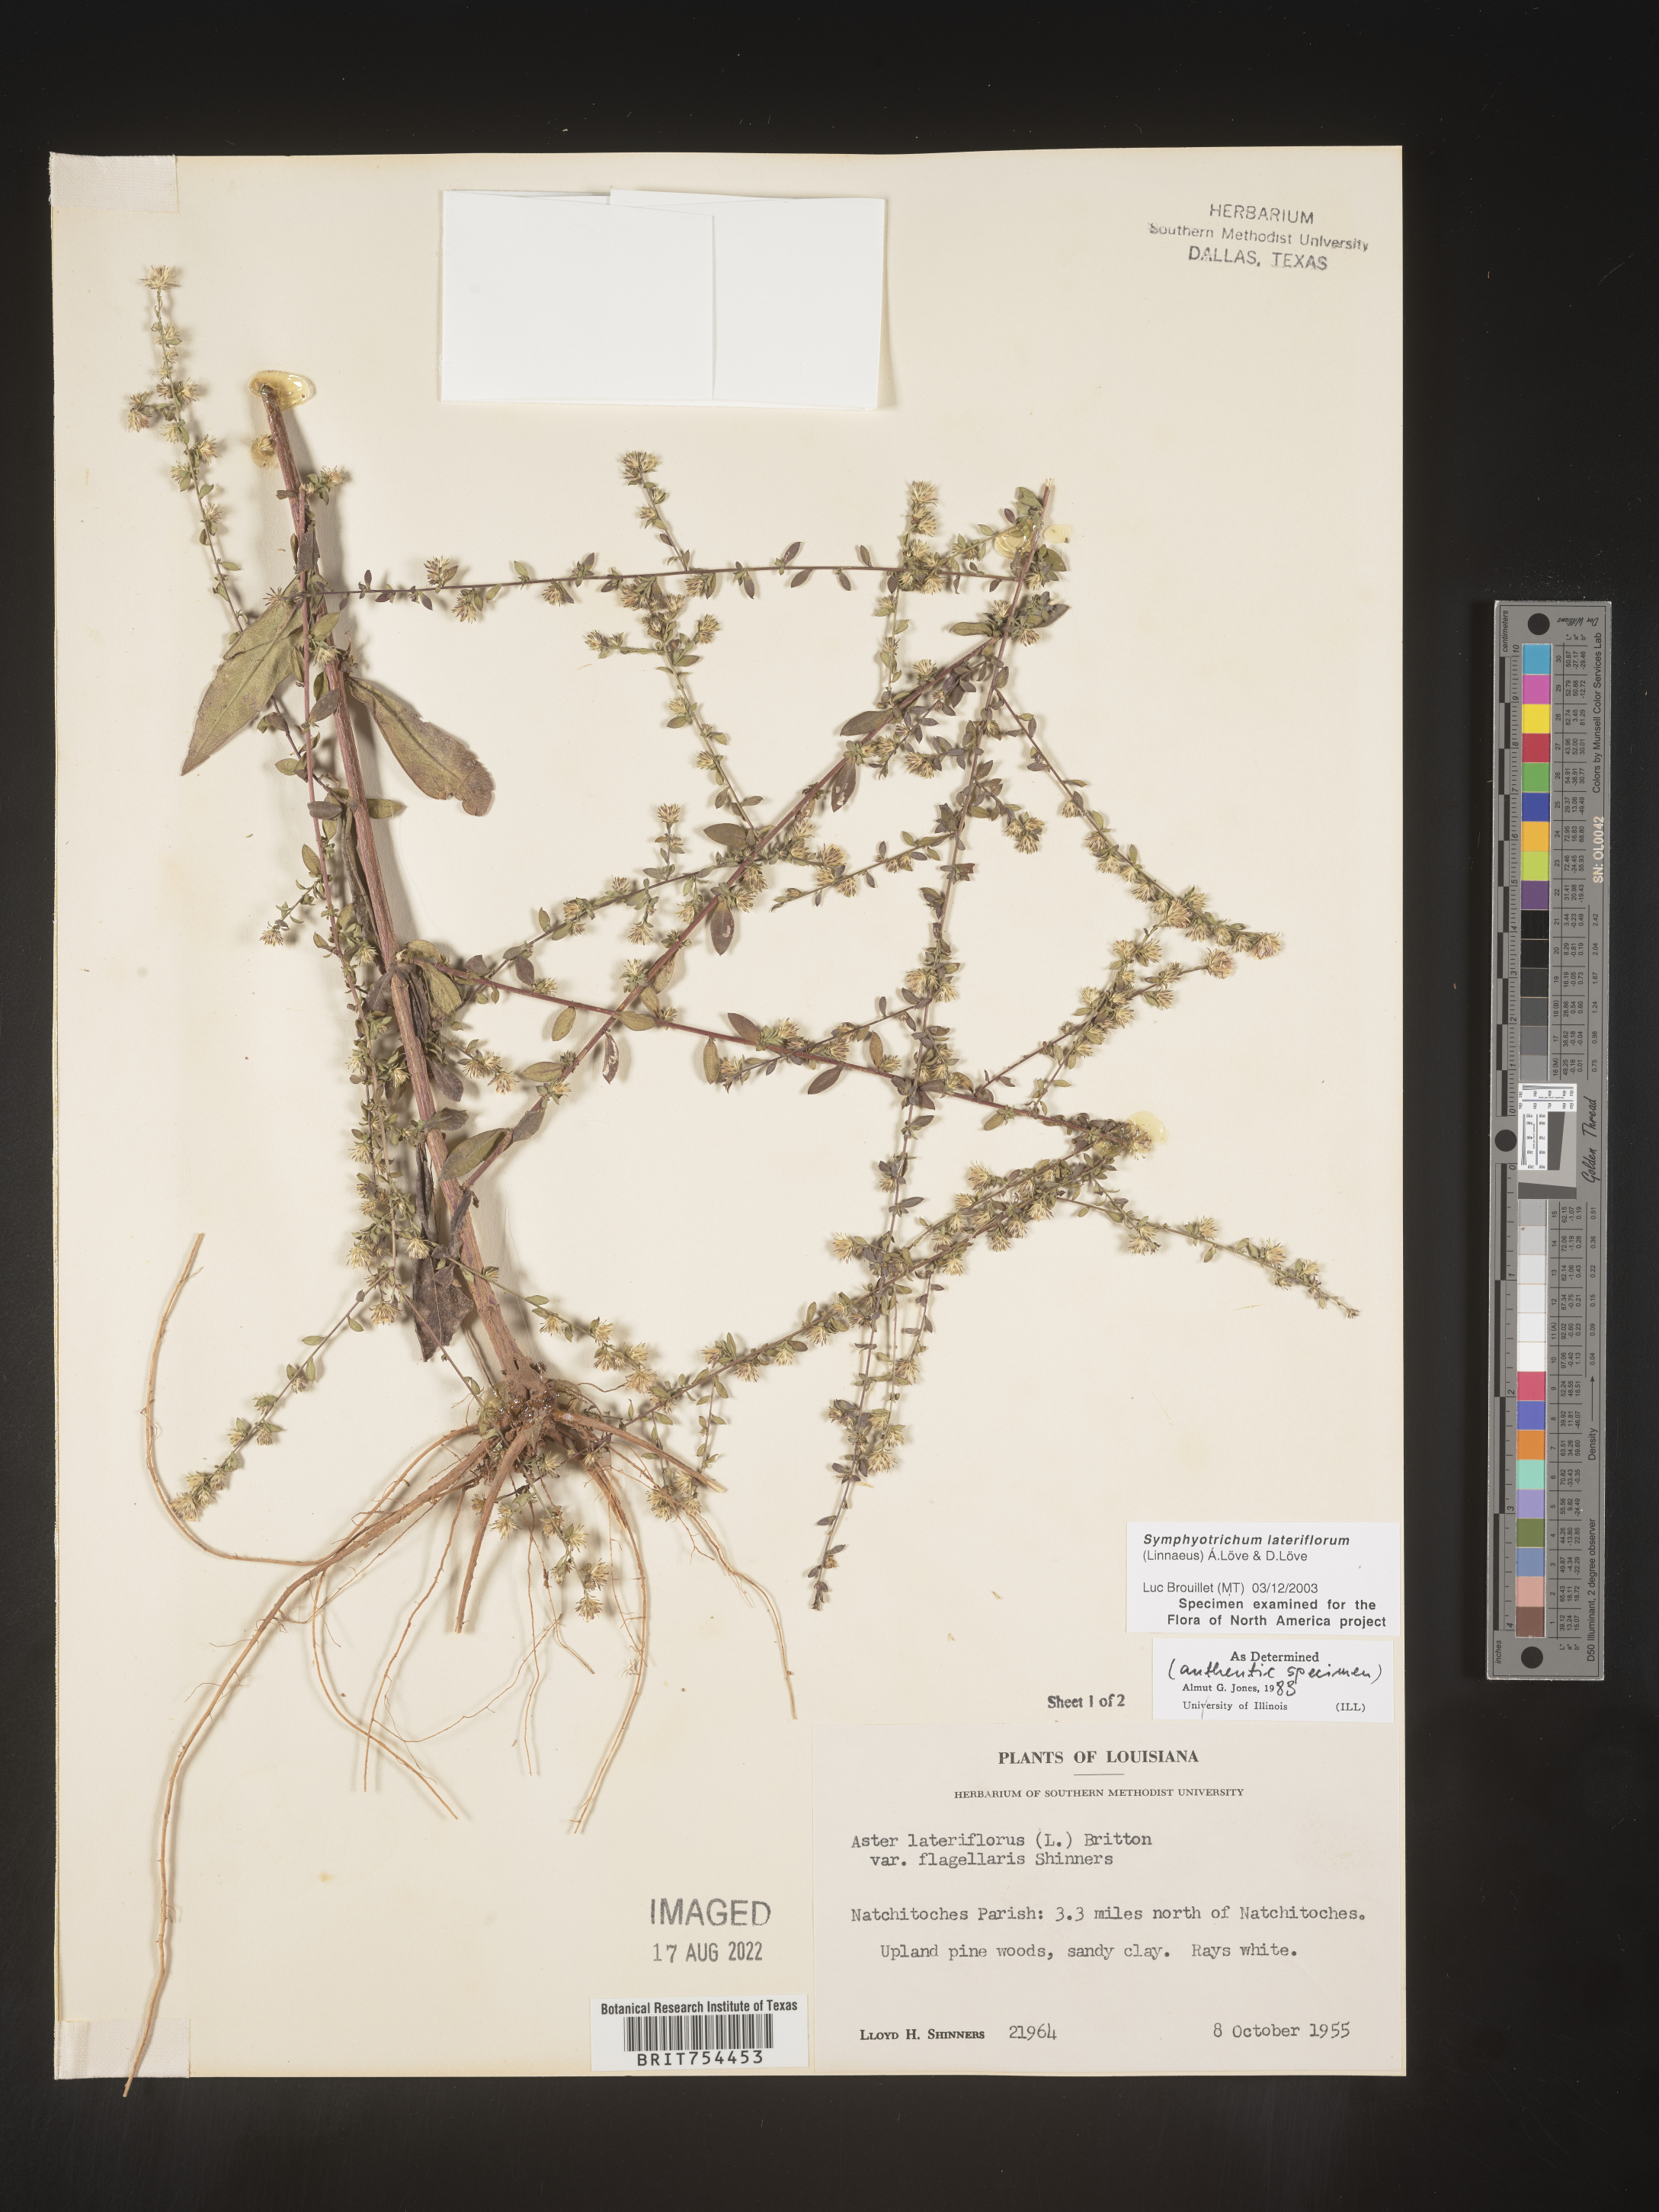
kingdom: Plantae
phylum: Tracheophyta
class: Magnoliopsida
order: Asterales
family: Asteraceae
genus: Symphyotrichum
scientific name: Symphyotrichum lateriflorum
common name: Calico aster
